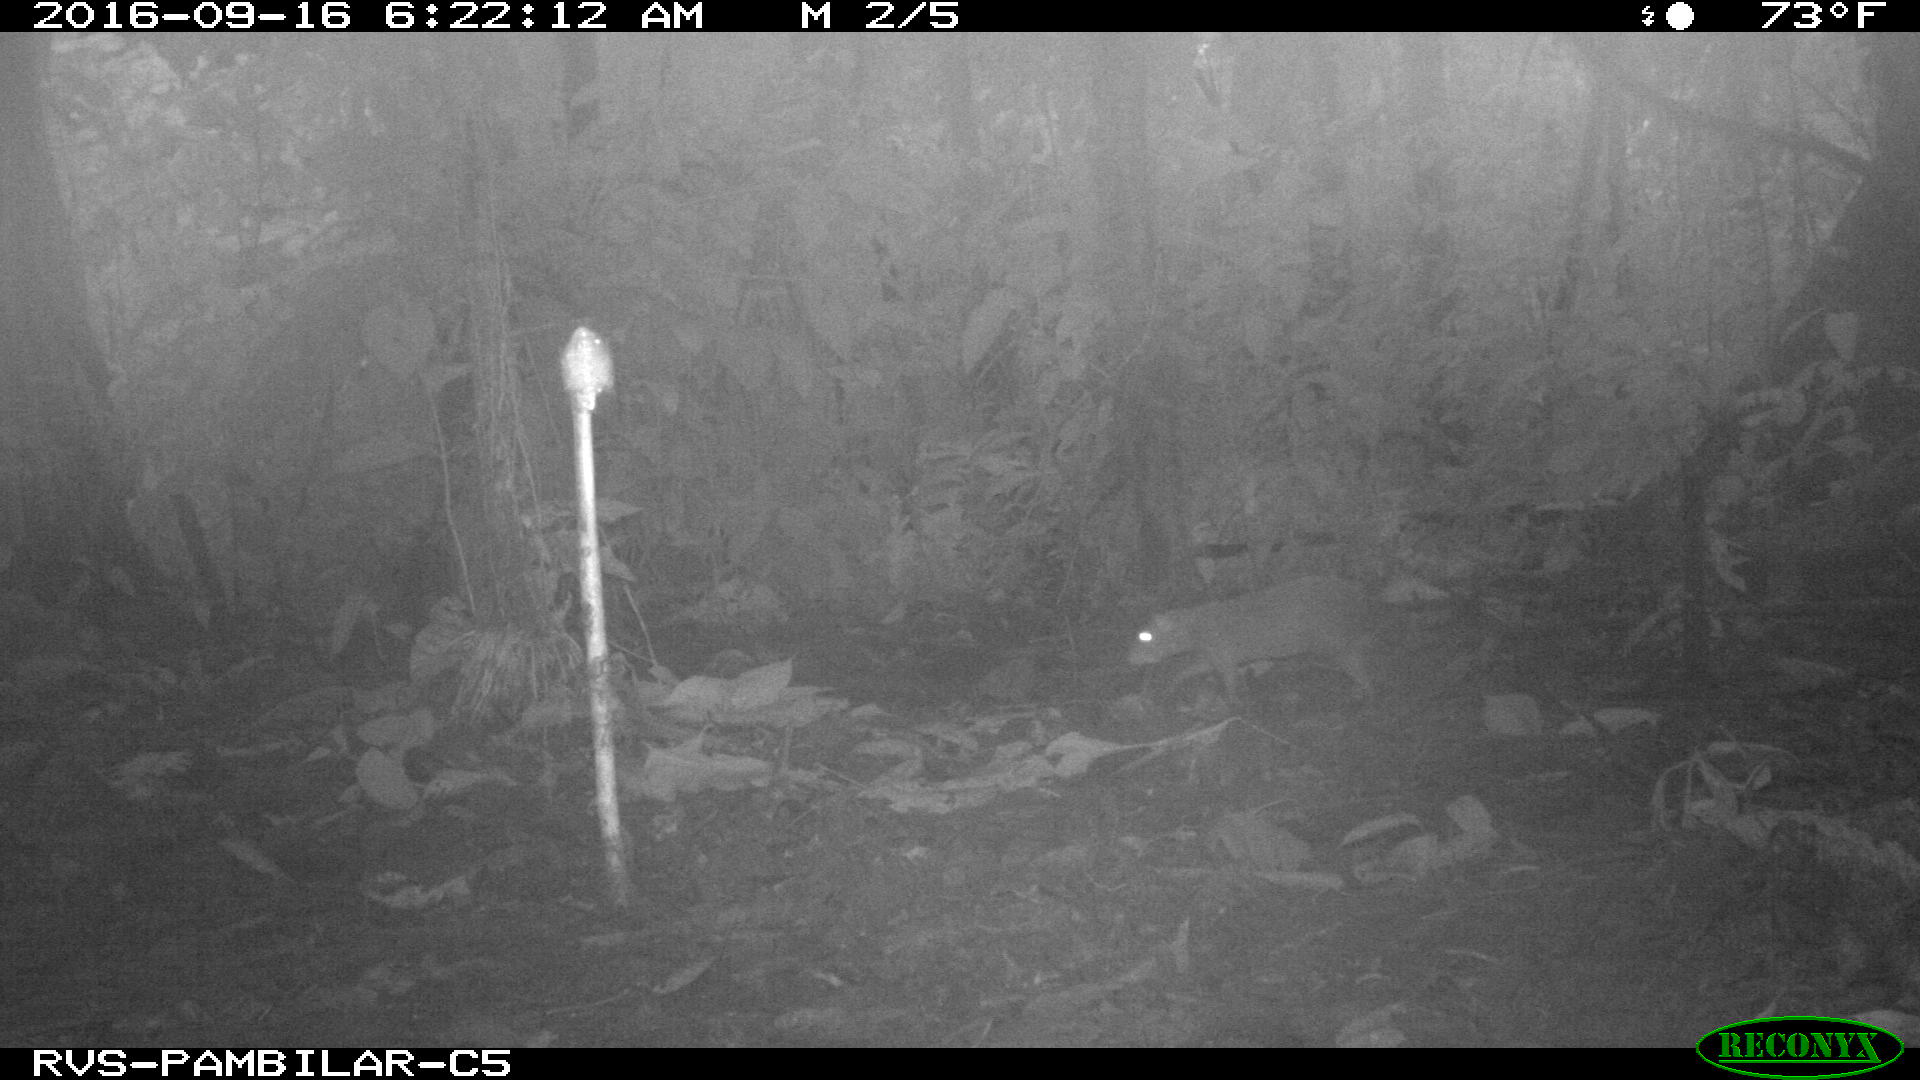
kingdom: Animalia
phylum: Chordata
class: Mammalia
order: Rodentia
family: Dasyproctidae
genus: Dasyprocta
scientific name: Dasyprocta punctata
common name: Central american agouti
